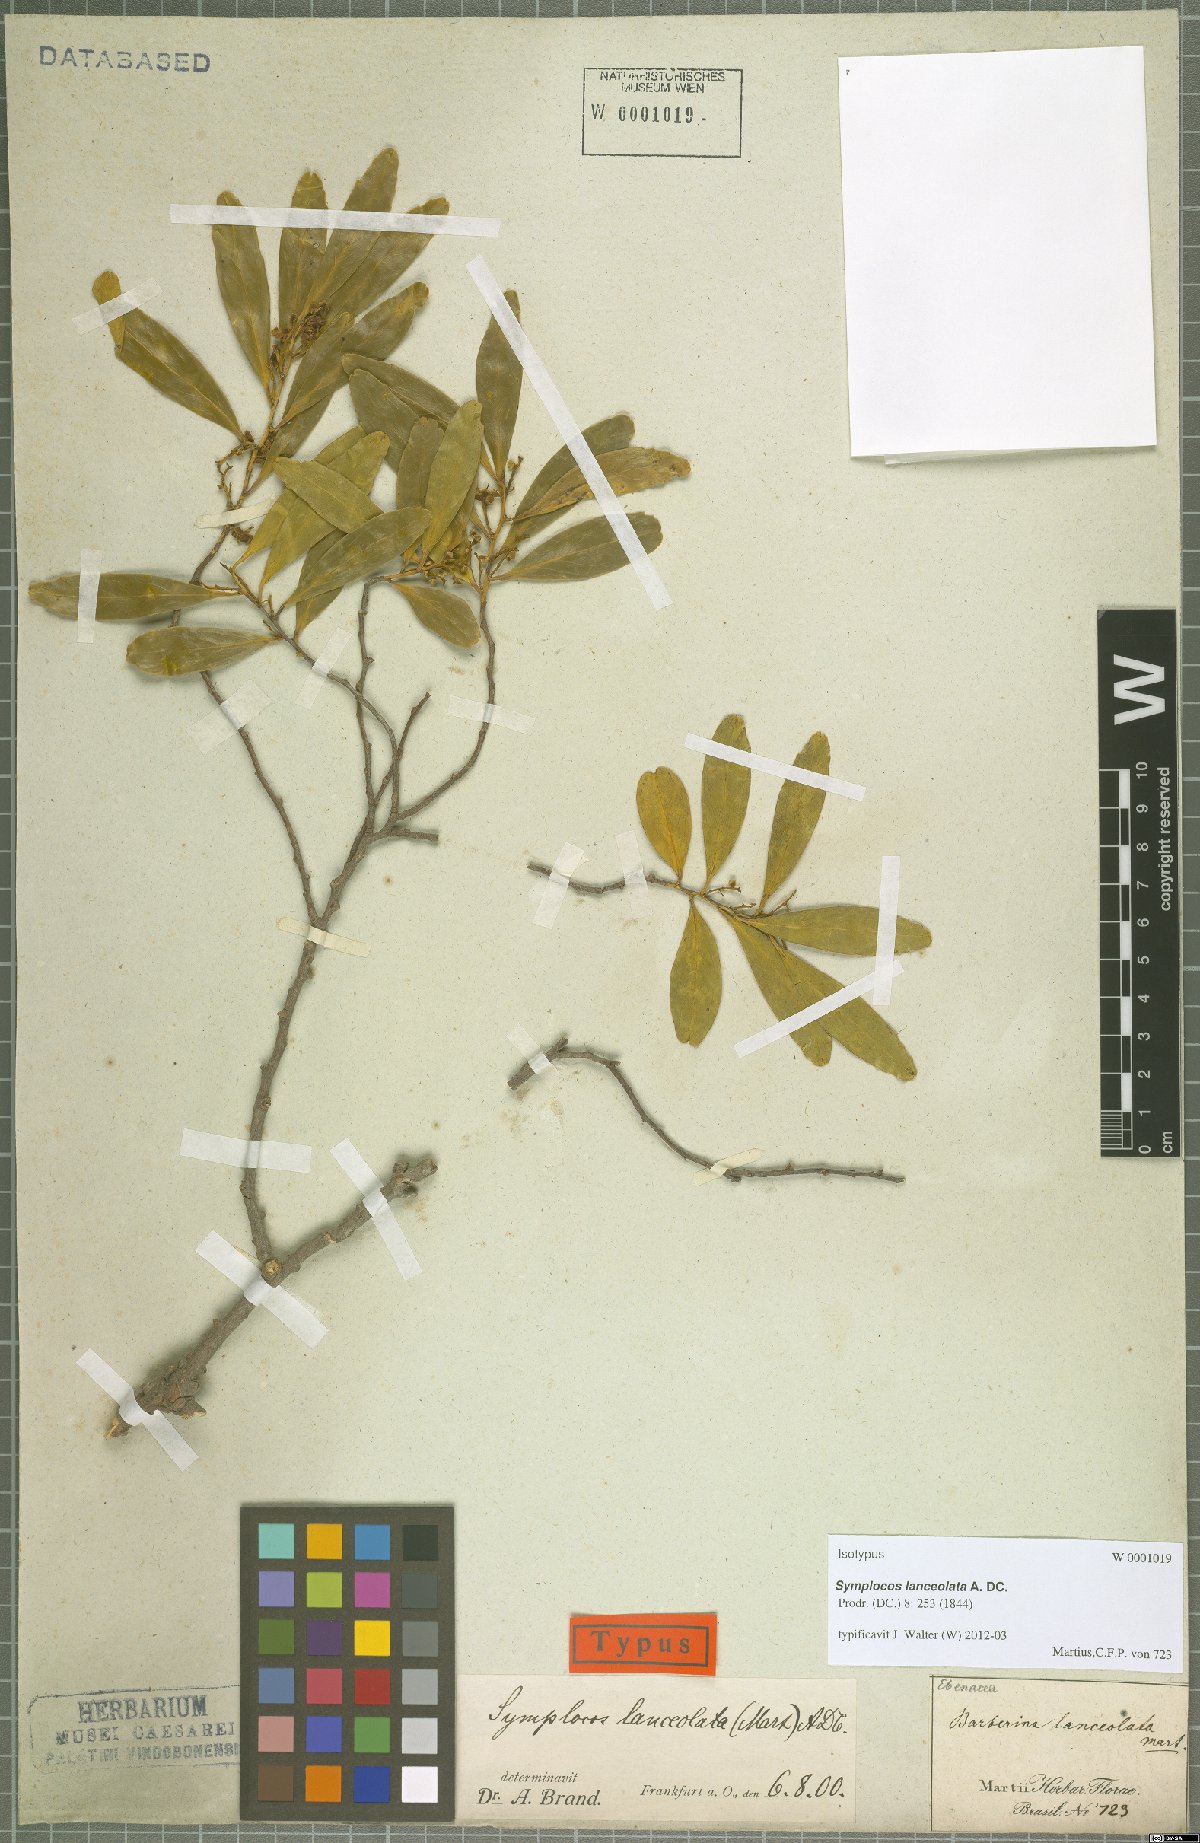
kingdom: Plantae
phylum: Tracheophyta
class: Magnoliopsida
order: Ericales
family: Symplocaceae
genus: Symplocos
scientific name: Symplocos oblongifolia
